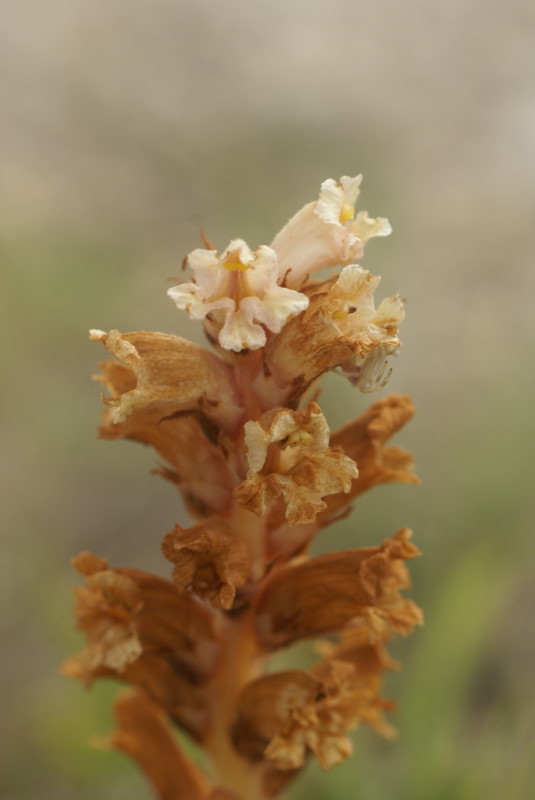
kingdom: Plantae
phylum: Tracheophyta
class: Magnoliopsida
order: Lamiales
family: Scrophulariaceae
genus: Orabanche
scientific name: Orabanche
